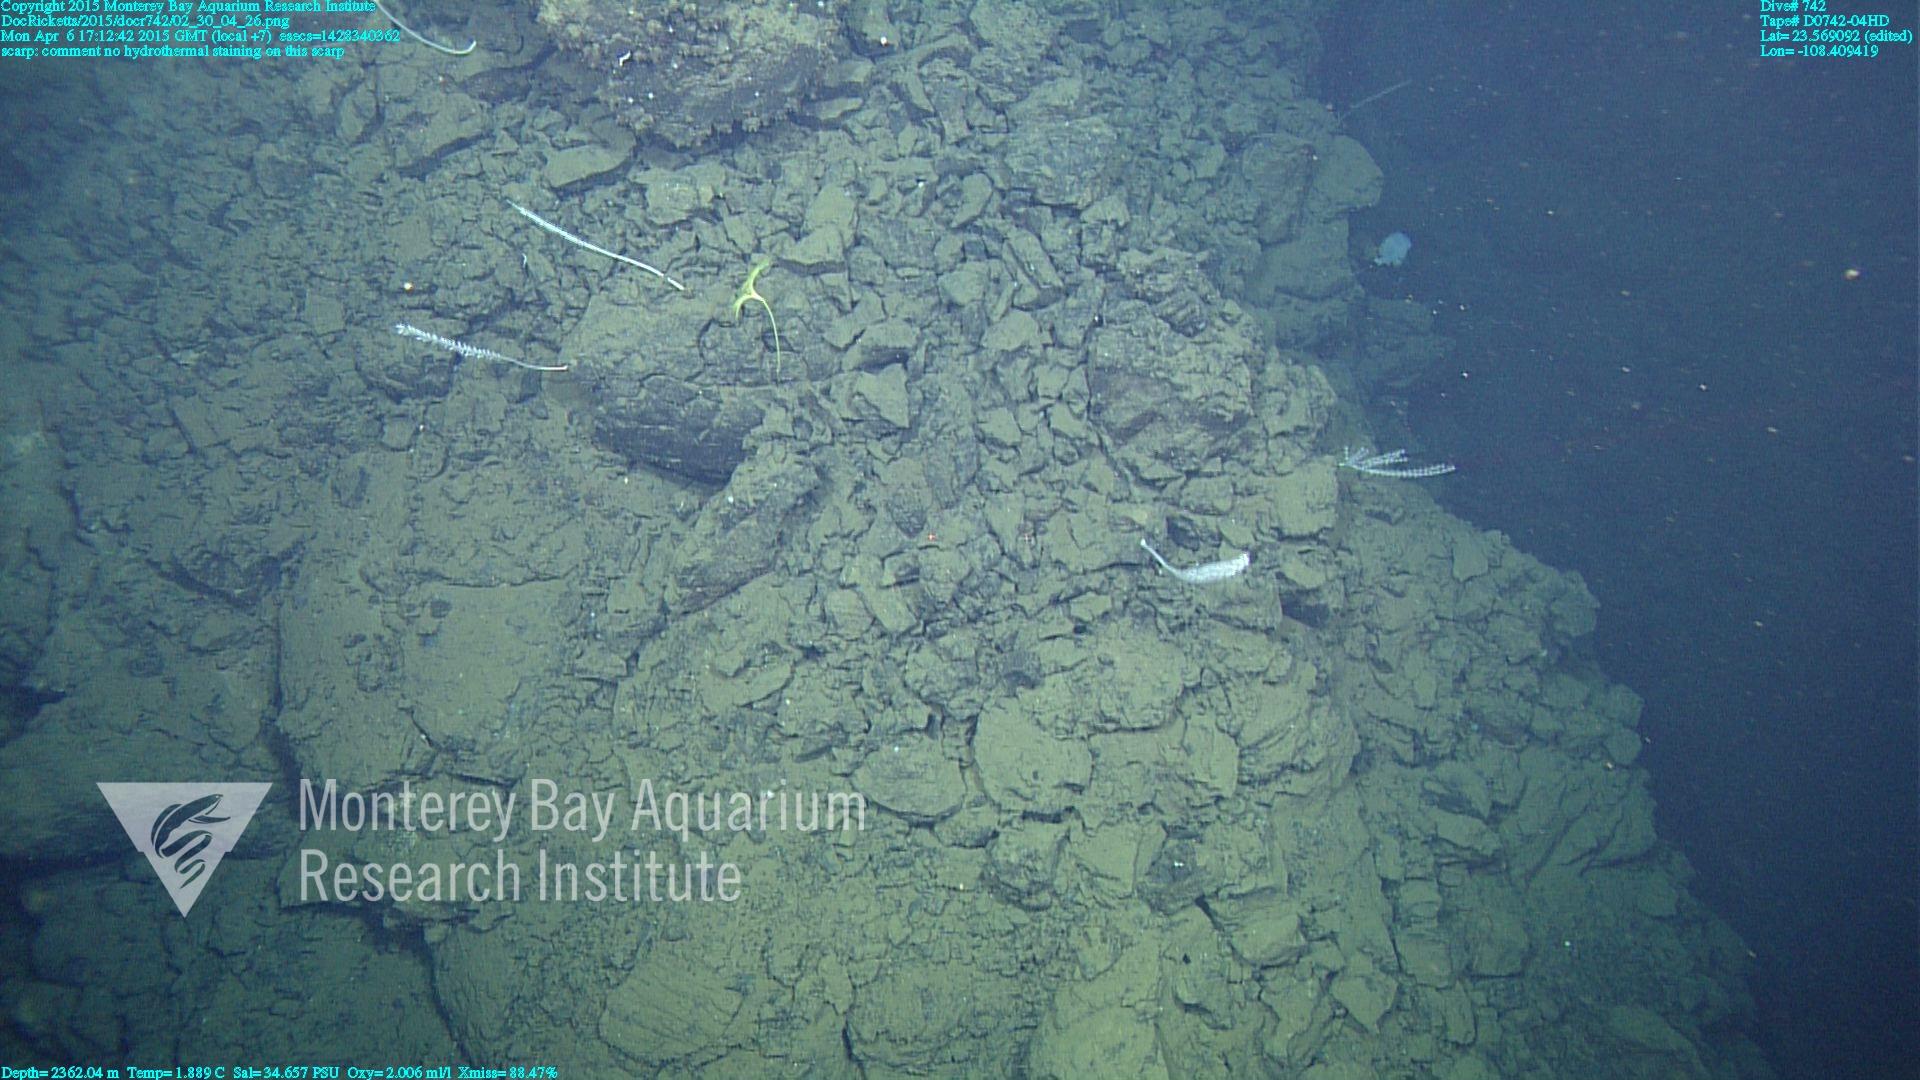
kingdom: Animalia
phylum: Cnidaria
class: Anthozoa
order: Scleralcyonacea
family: Keratoisididae
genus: Lepidisis
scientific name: Lepidisis
